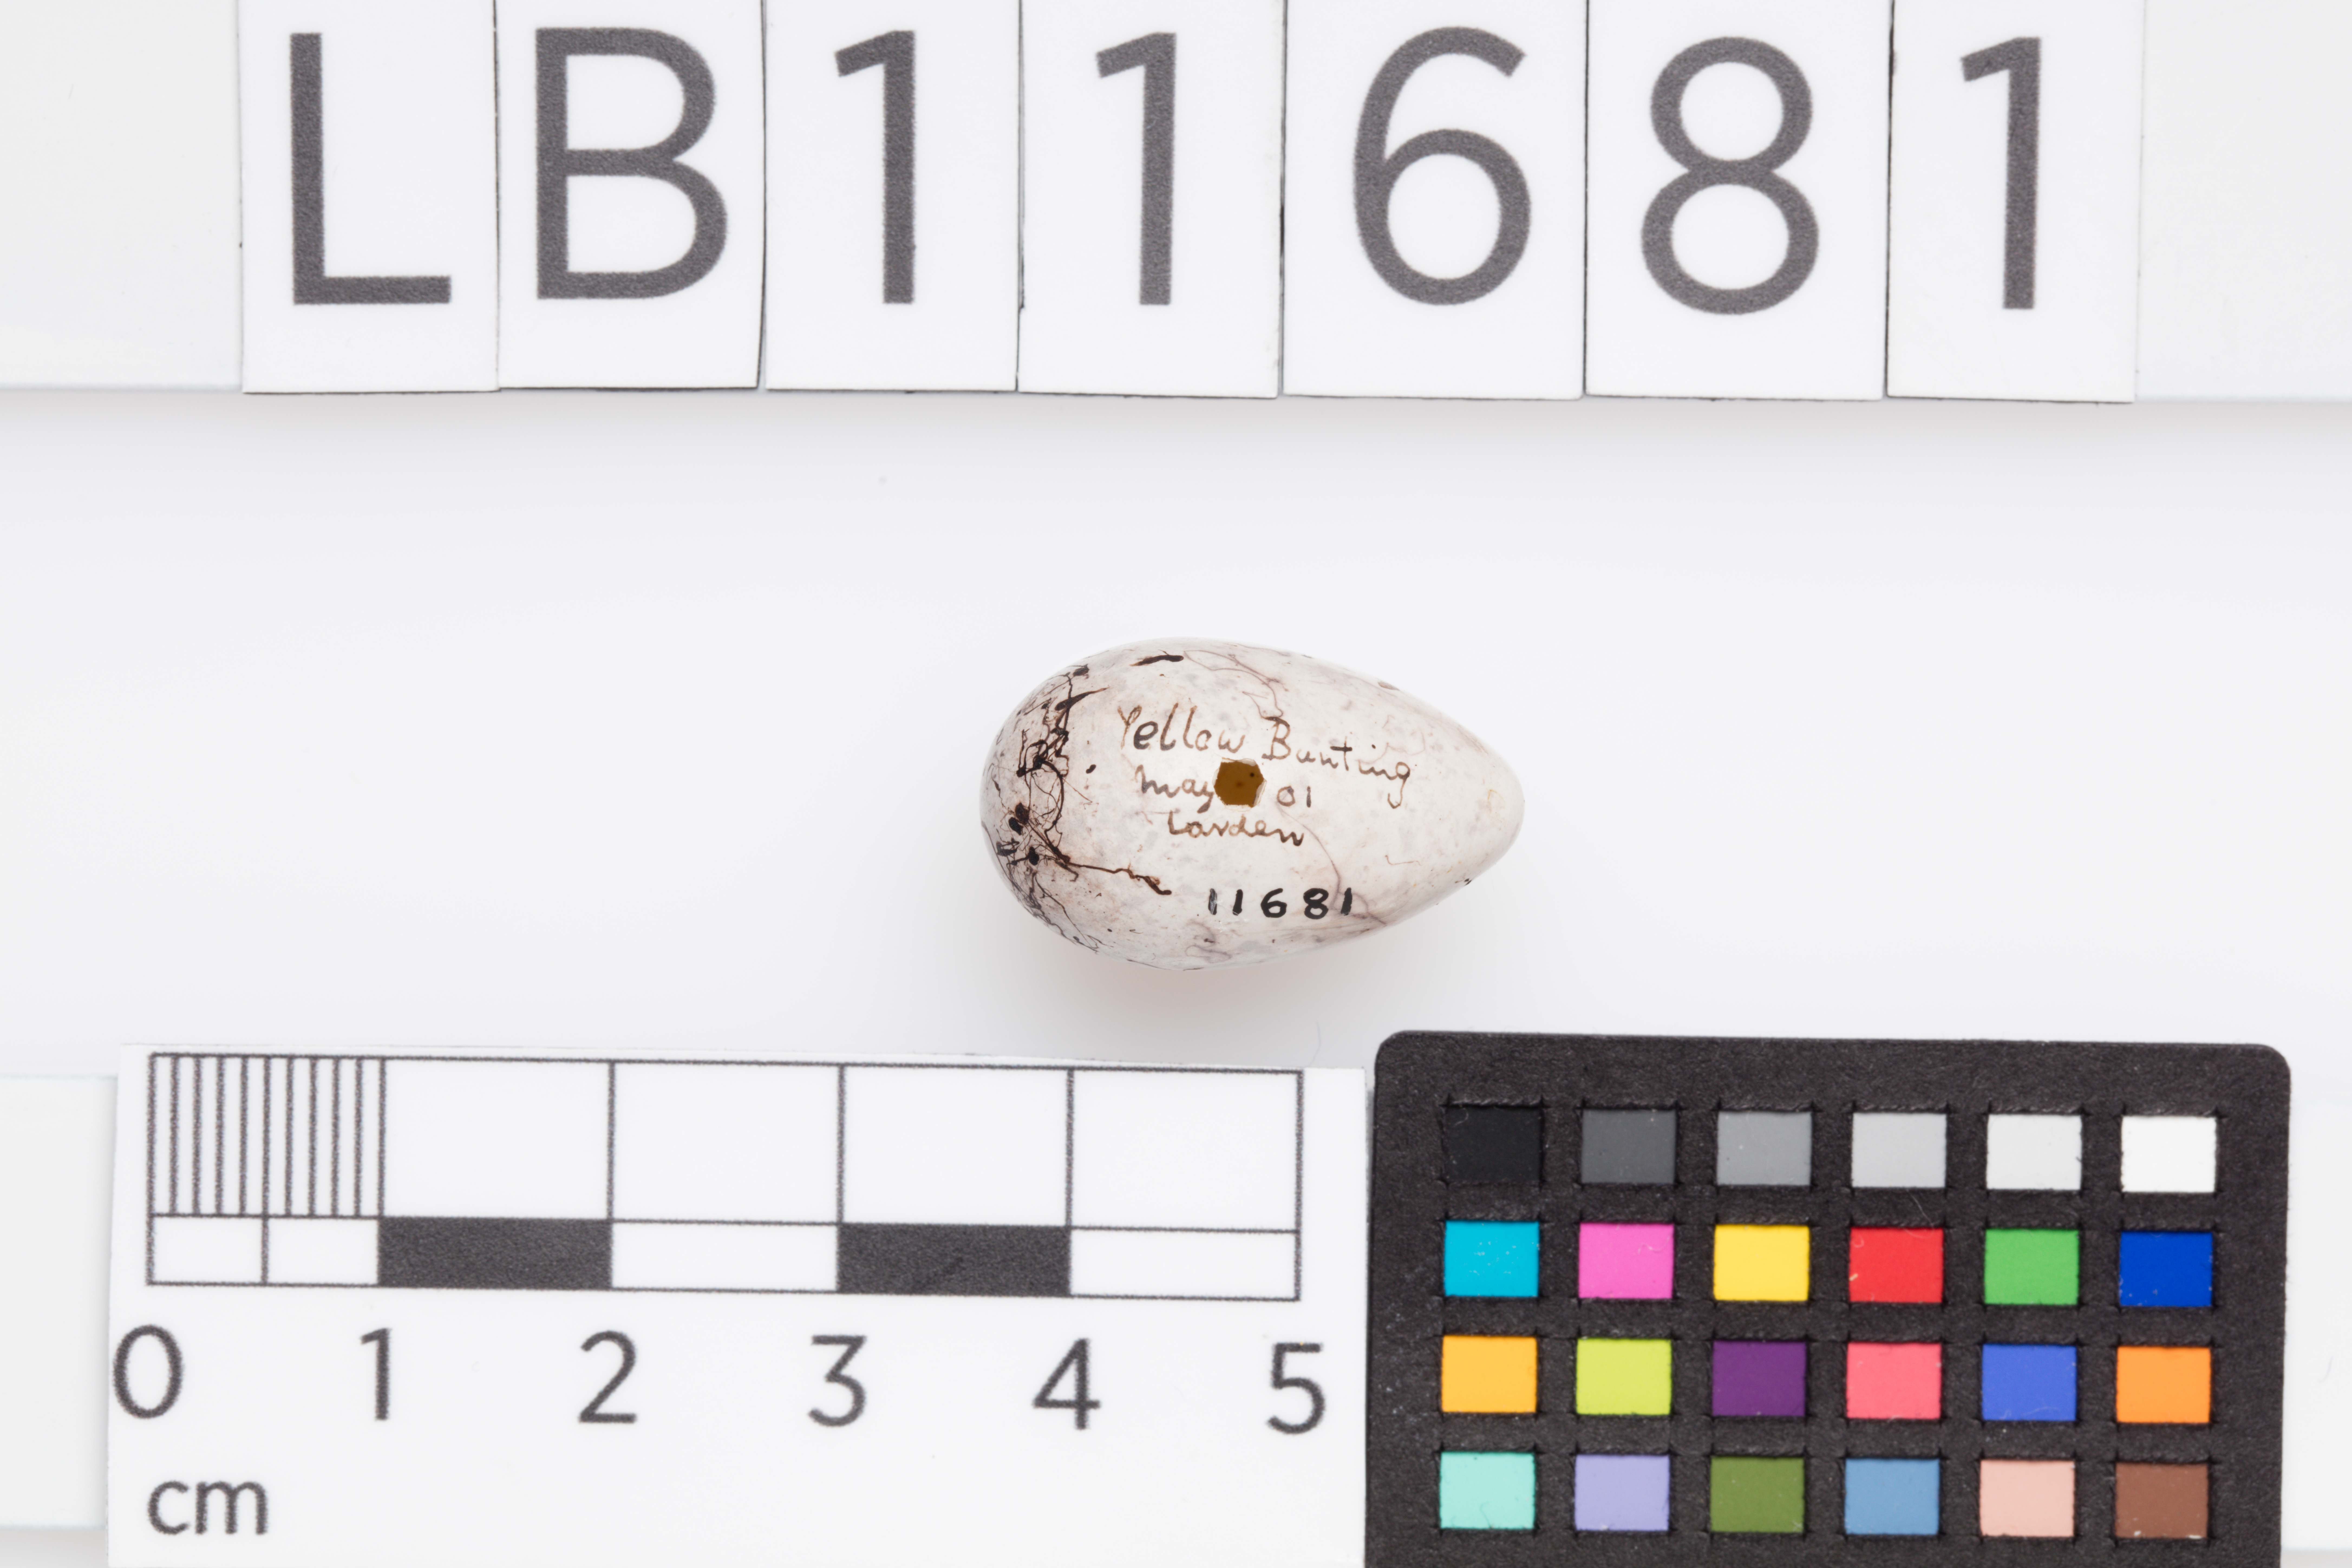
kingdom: Animalia
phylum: Chordata
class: Aves
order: Passeriformes
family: Emberizidae
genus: Emberiza
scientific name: Emberiza citrinella
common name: Yellowhammer
